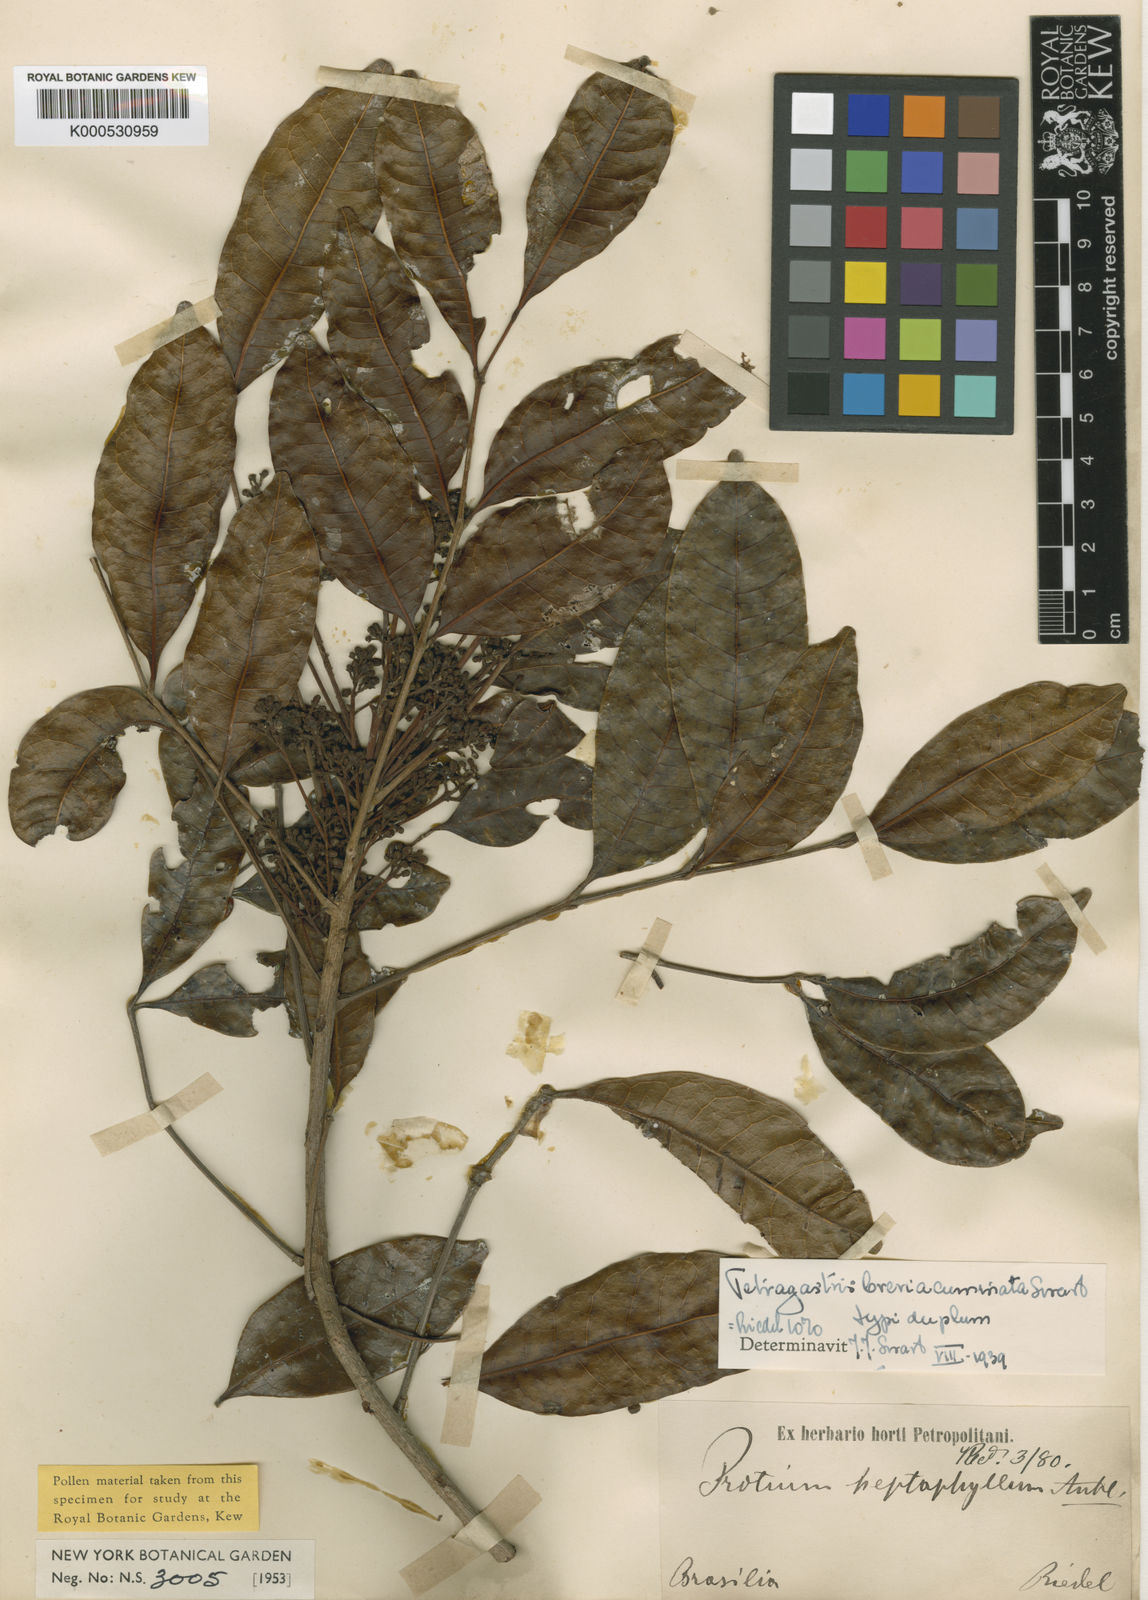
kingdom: Plantae
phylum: Tracheophyta
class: Magnoliopsida
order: Sapindales
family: Burseraceae
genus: Tetragastris
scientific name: Tetragastris breviacuminata
